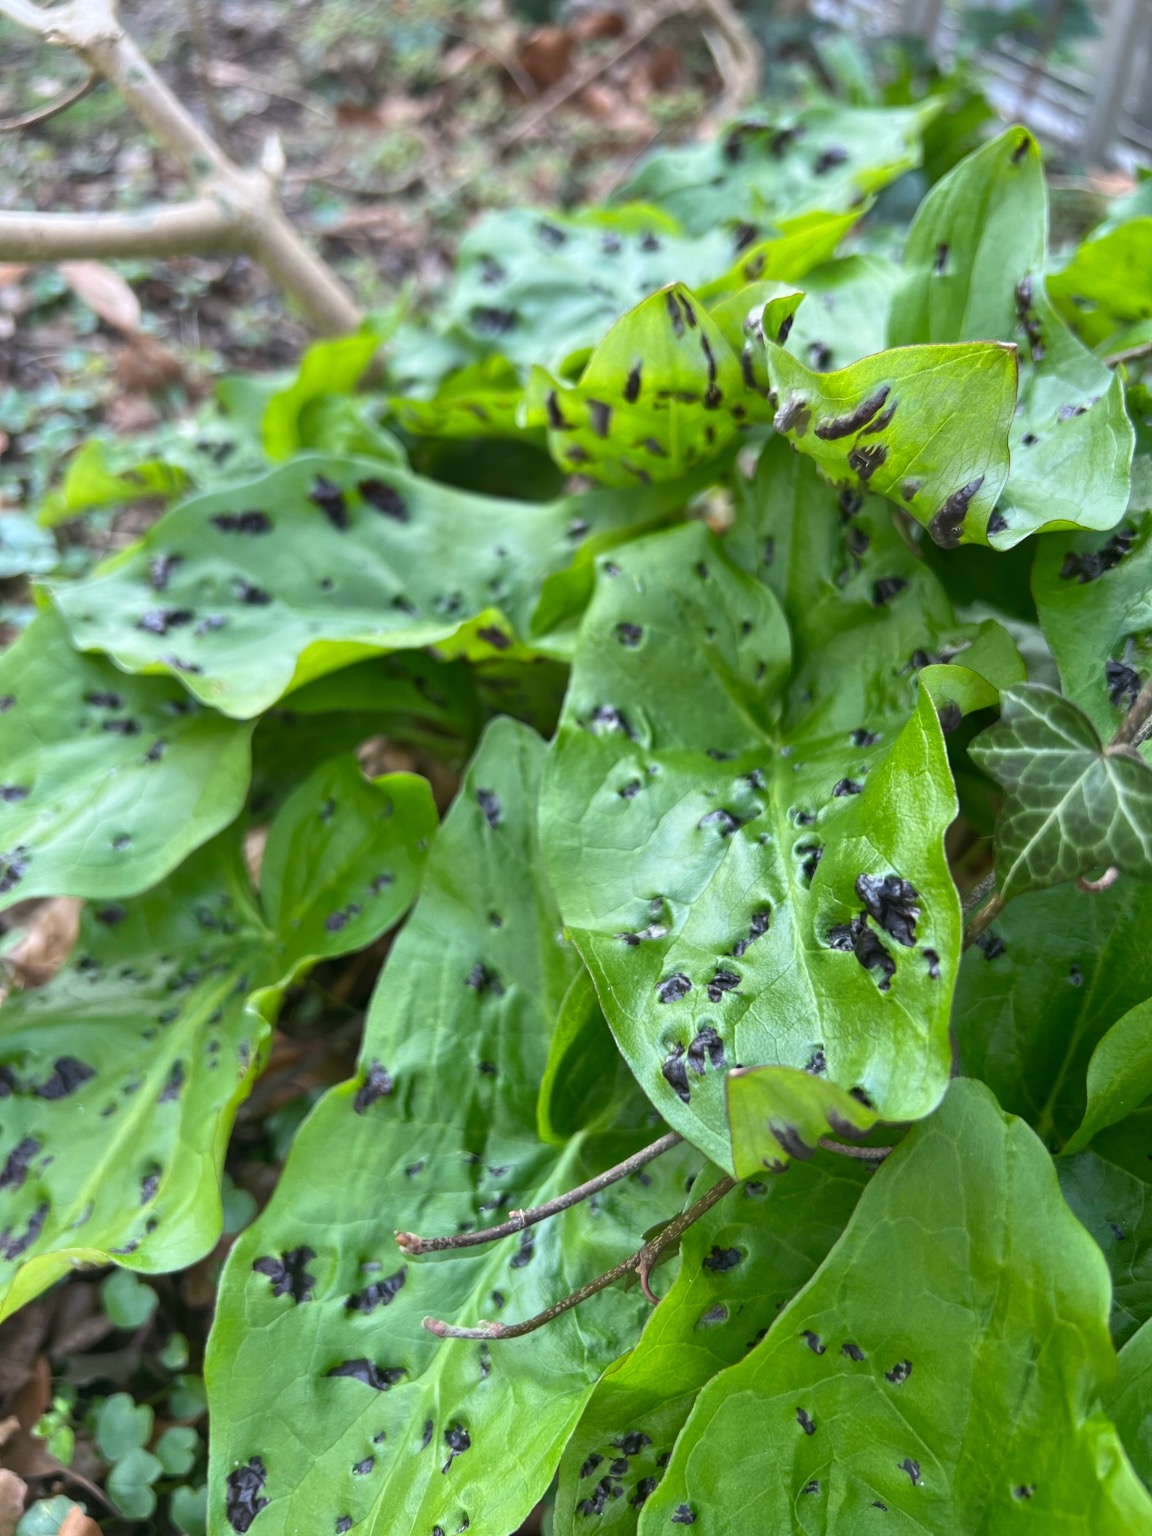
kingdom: Plantae
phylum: Tracheophyta
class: Liliopsida
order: Alismatales
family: Araceae
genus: Arum
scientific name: Arum maculatum
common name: Plettet arum
